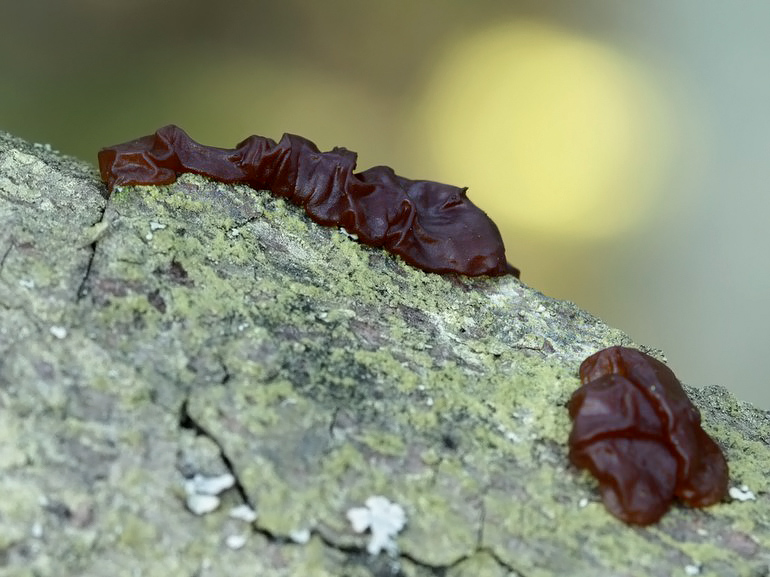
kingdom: Fungi
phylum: Basidiomycota
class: Agaricomycetes
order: Auriculariales
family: Auriculariaceae
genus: Exidia
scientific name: Exidia saccharina
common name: kandis-bævretop
